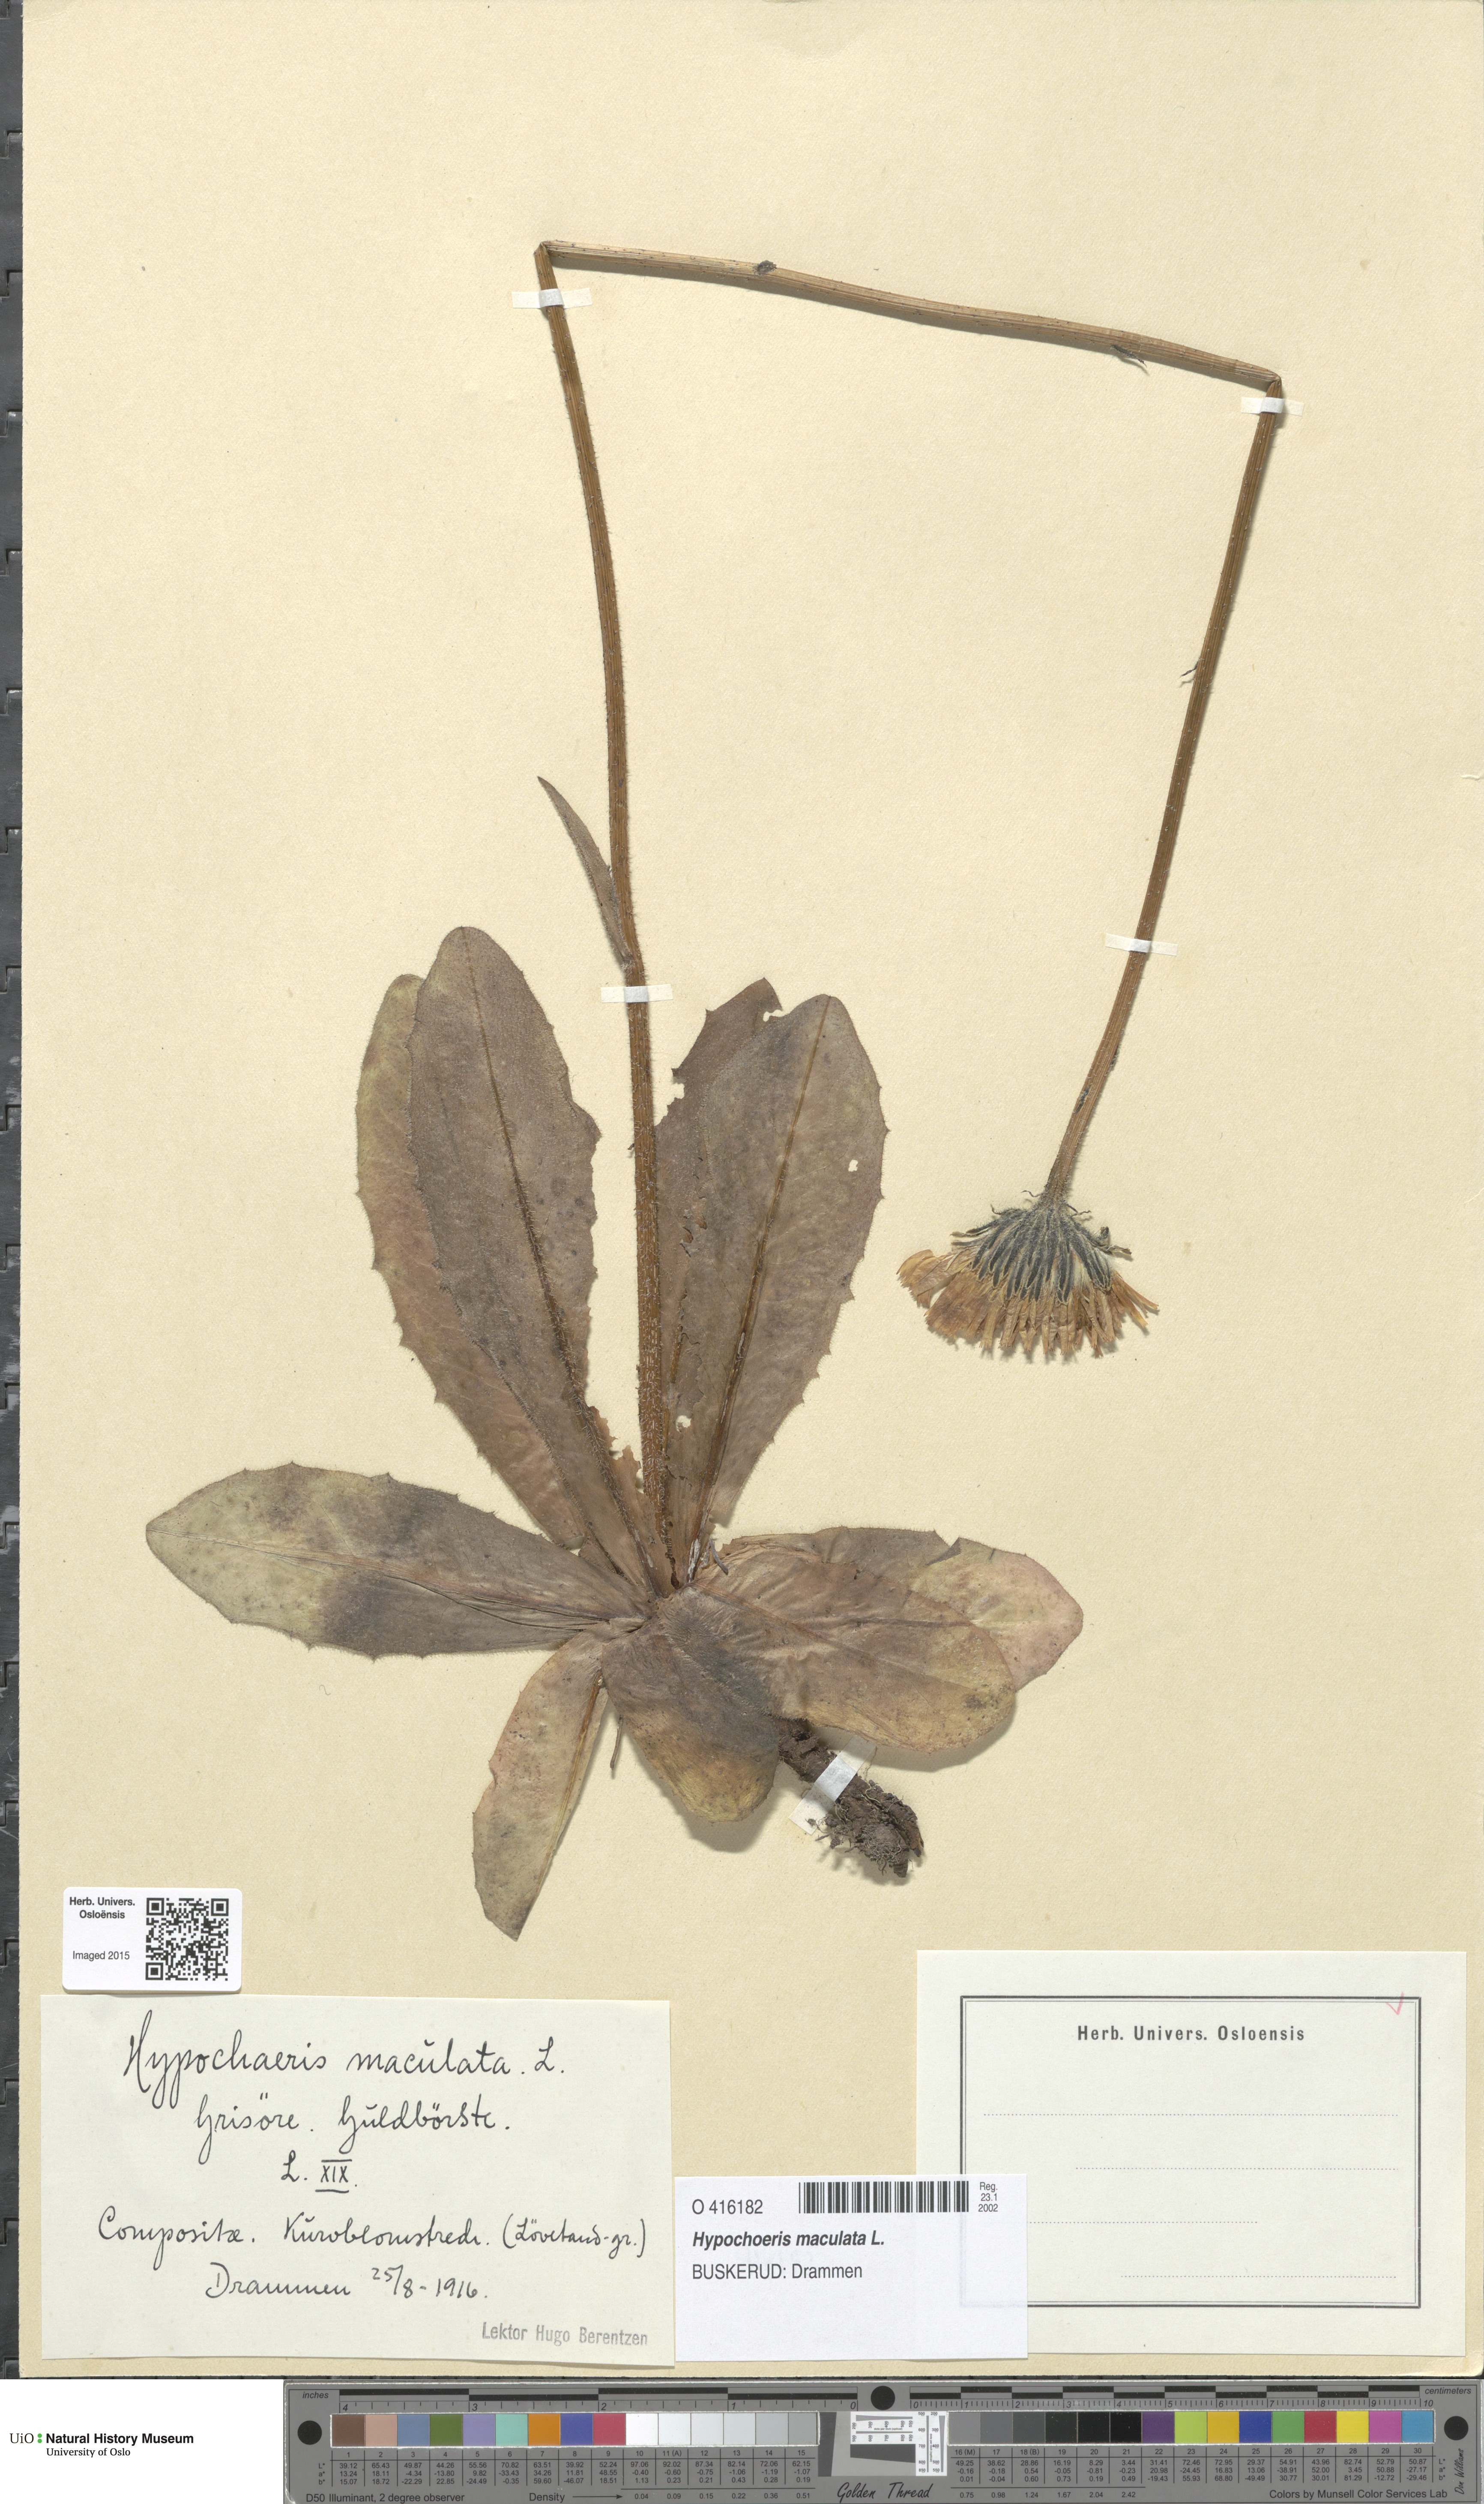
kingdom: Plantae
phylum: Tracheophyta
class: Magnoliopsida
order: Asterales
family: Asteraceae
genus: Trommsdorffia
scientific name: Trommsdorffia maculata
